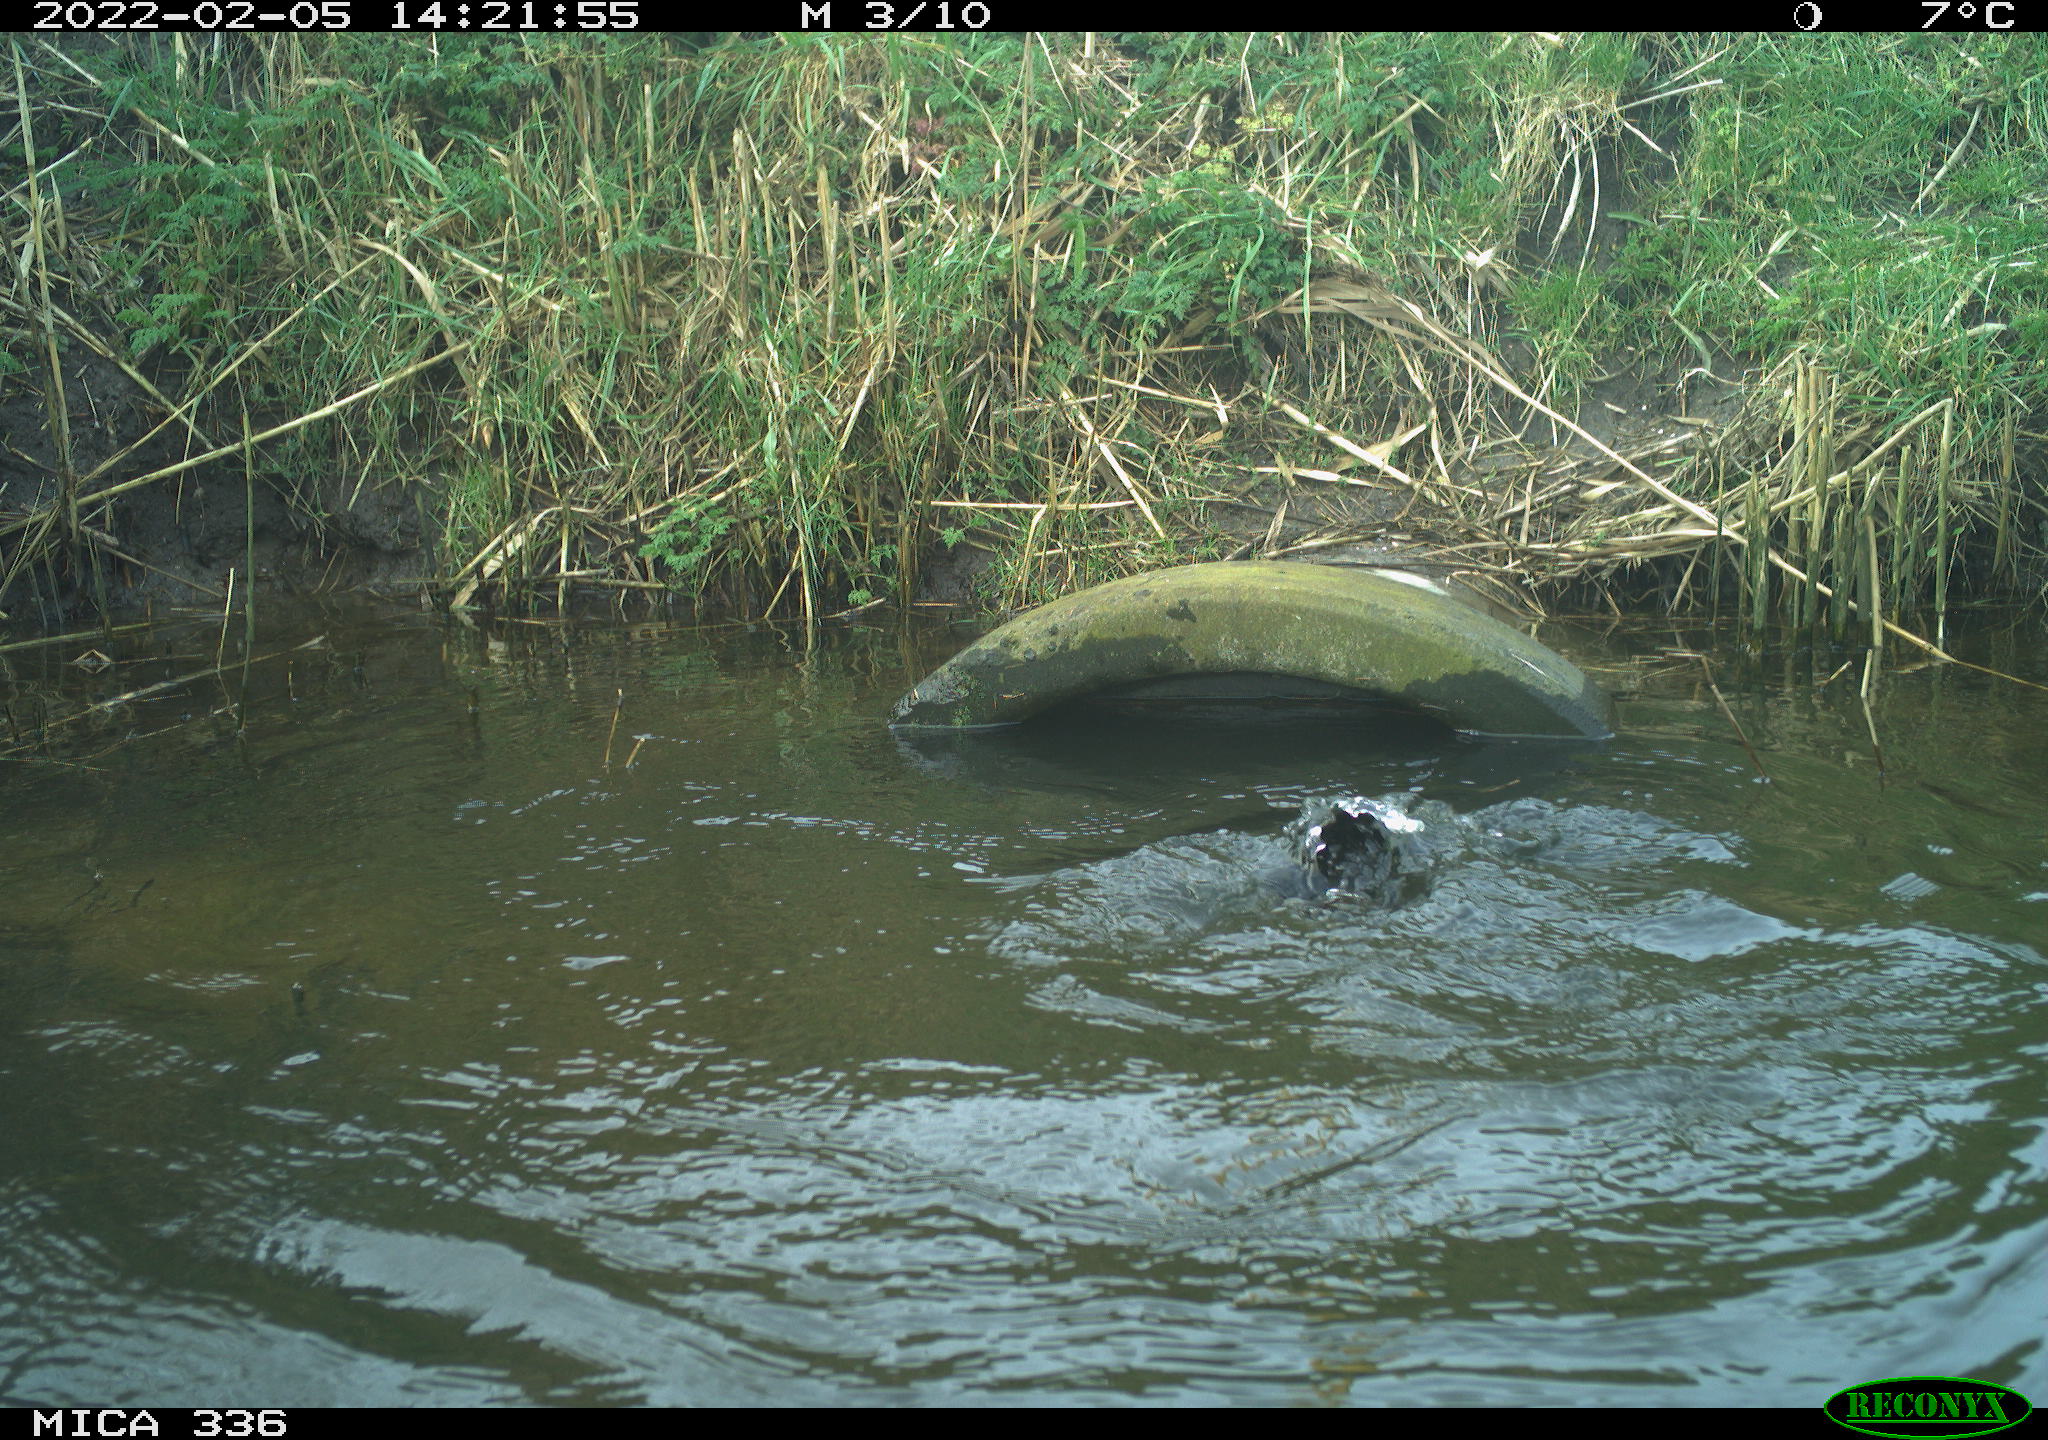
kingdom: Animalia
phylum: Chordata
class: Aves
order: Suliformes
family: Phalacrocoracidae
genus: Phalacrocorax
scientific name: Phalacrocorax carbo
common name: Great cormorant
